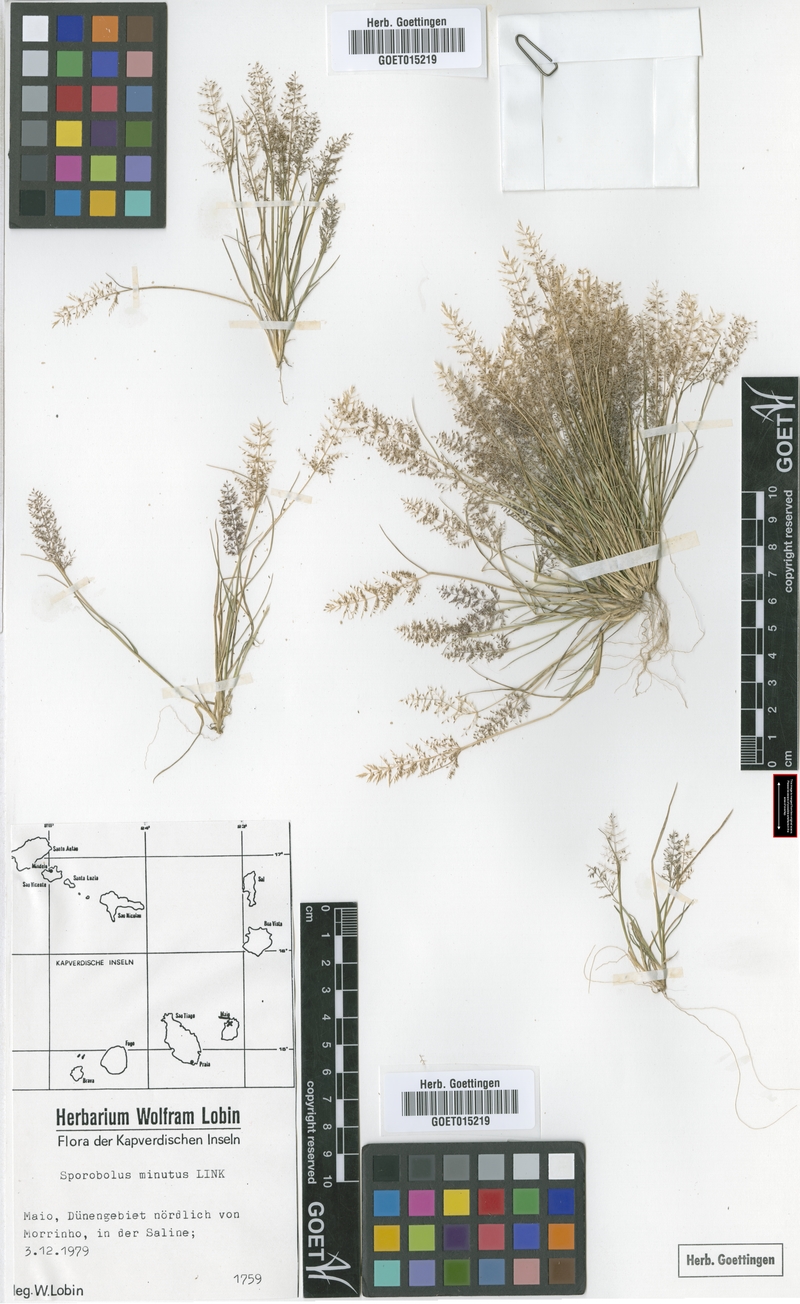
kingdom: Plantae
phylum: Tracheophyta
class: Liliopsida
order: Poales
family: Poaceae
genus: Sporobolus
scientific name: Sporobolus minutus
